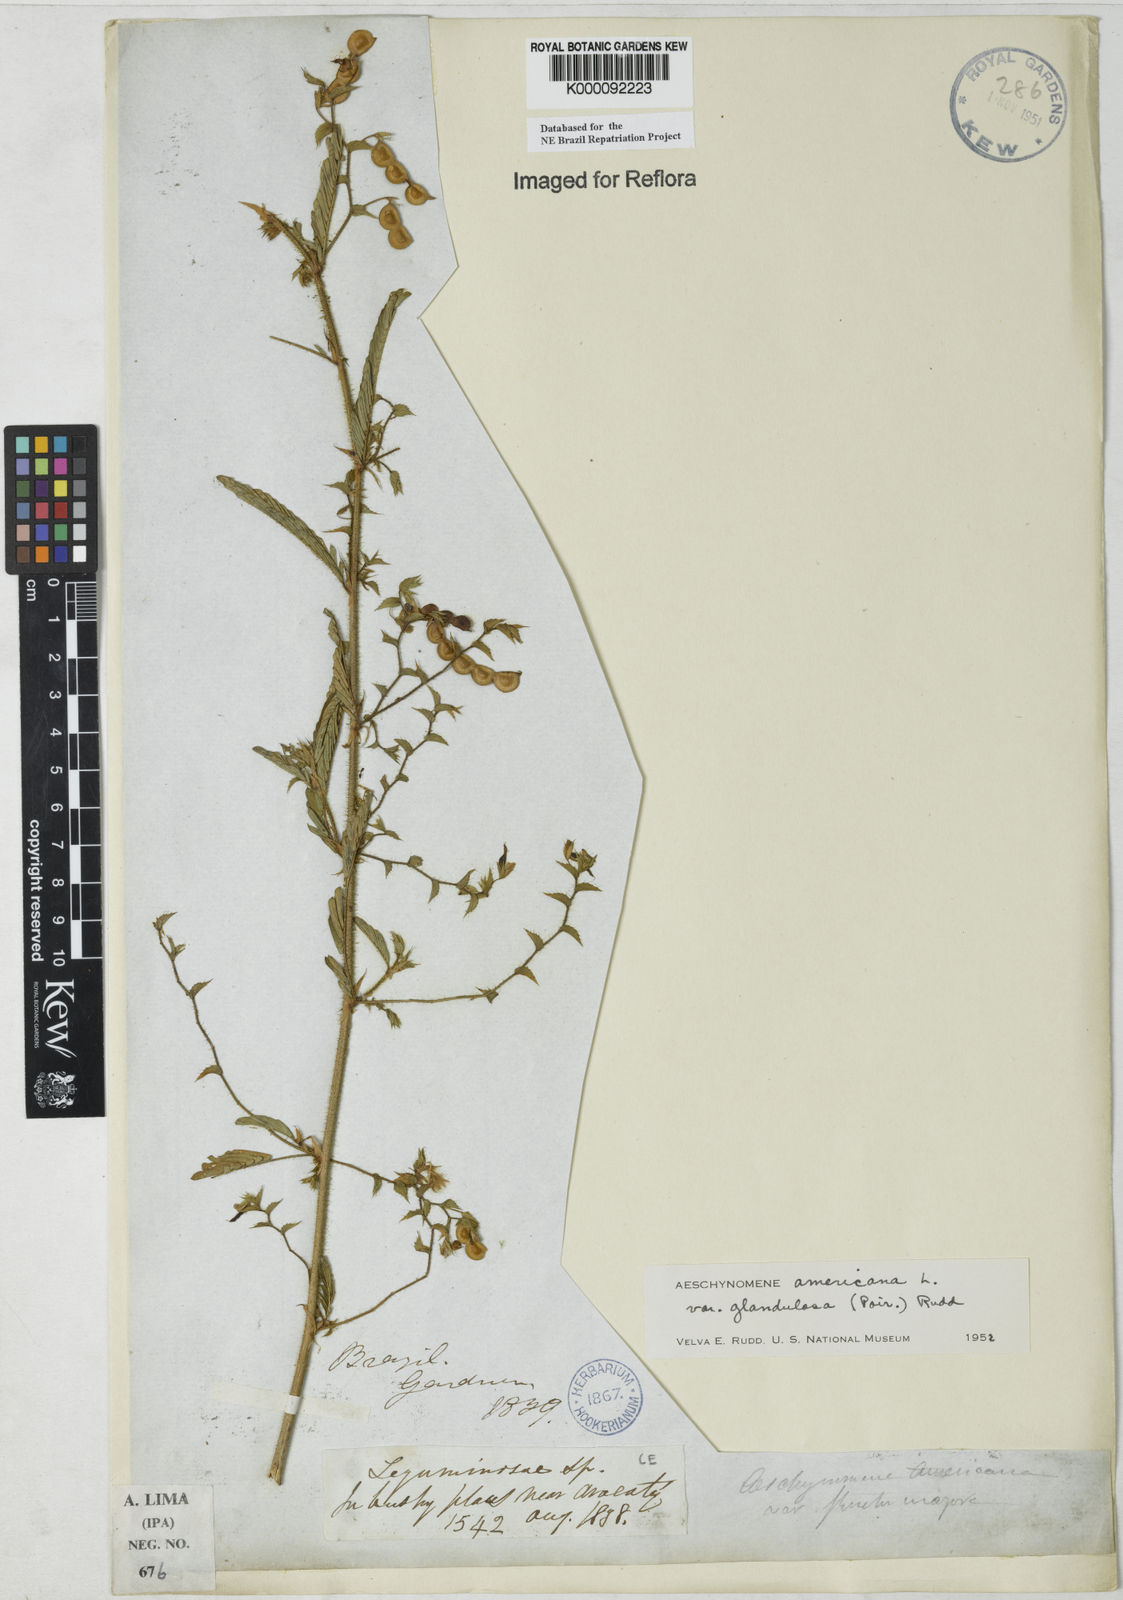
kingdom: Plantae
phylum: Tracheophyta
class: Magnoliopsida
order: Fabales
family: Fabaceae
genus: Aeschynomene
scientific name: Aeschynomene americana
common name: Joint-vetch
